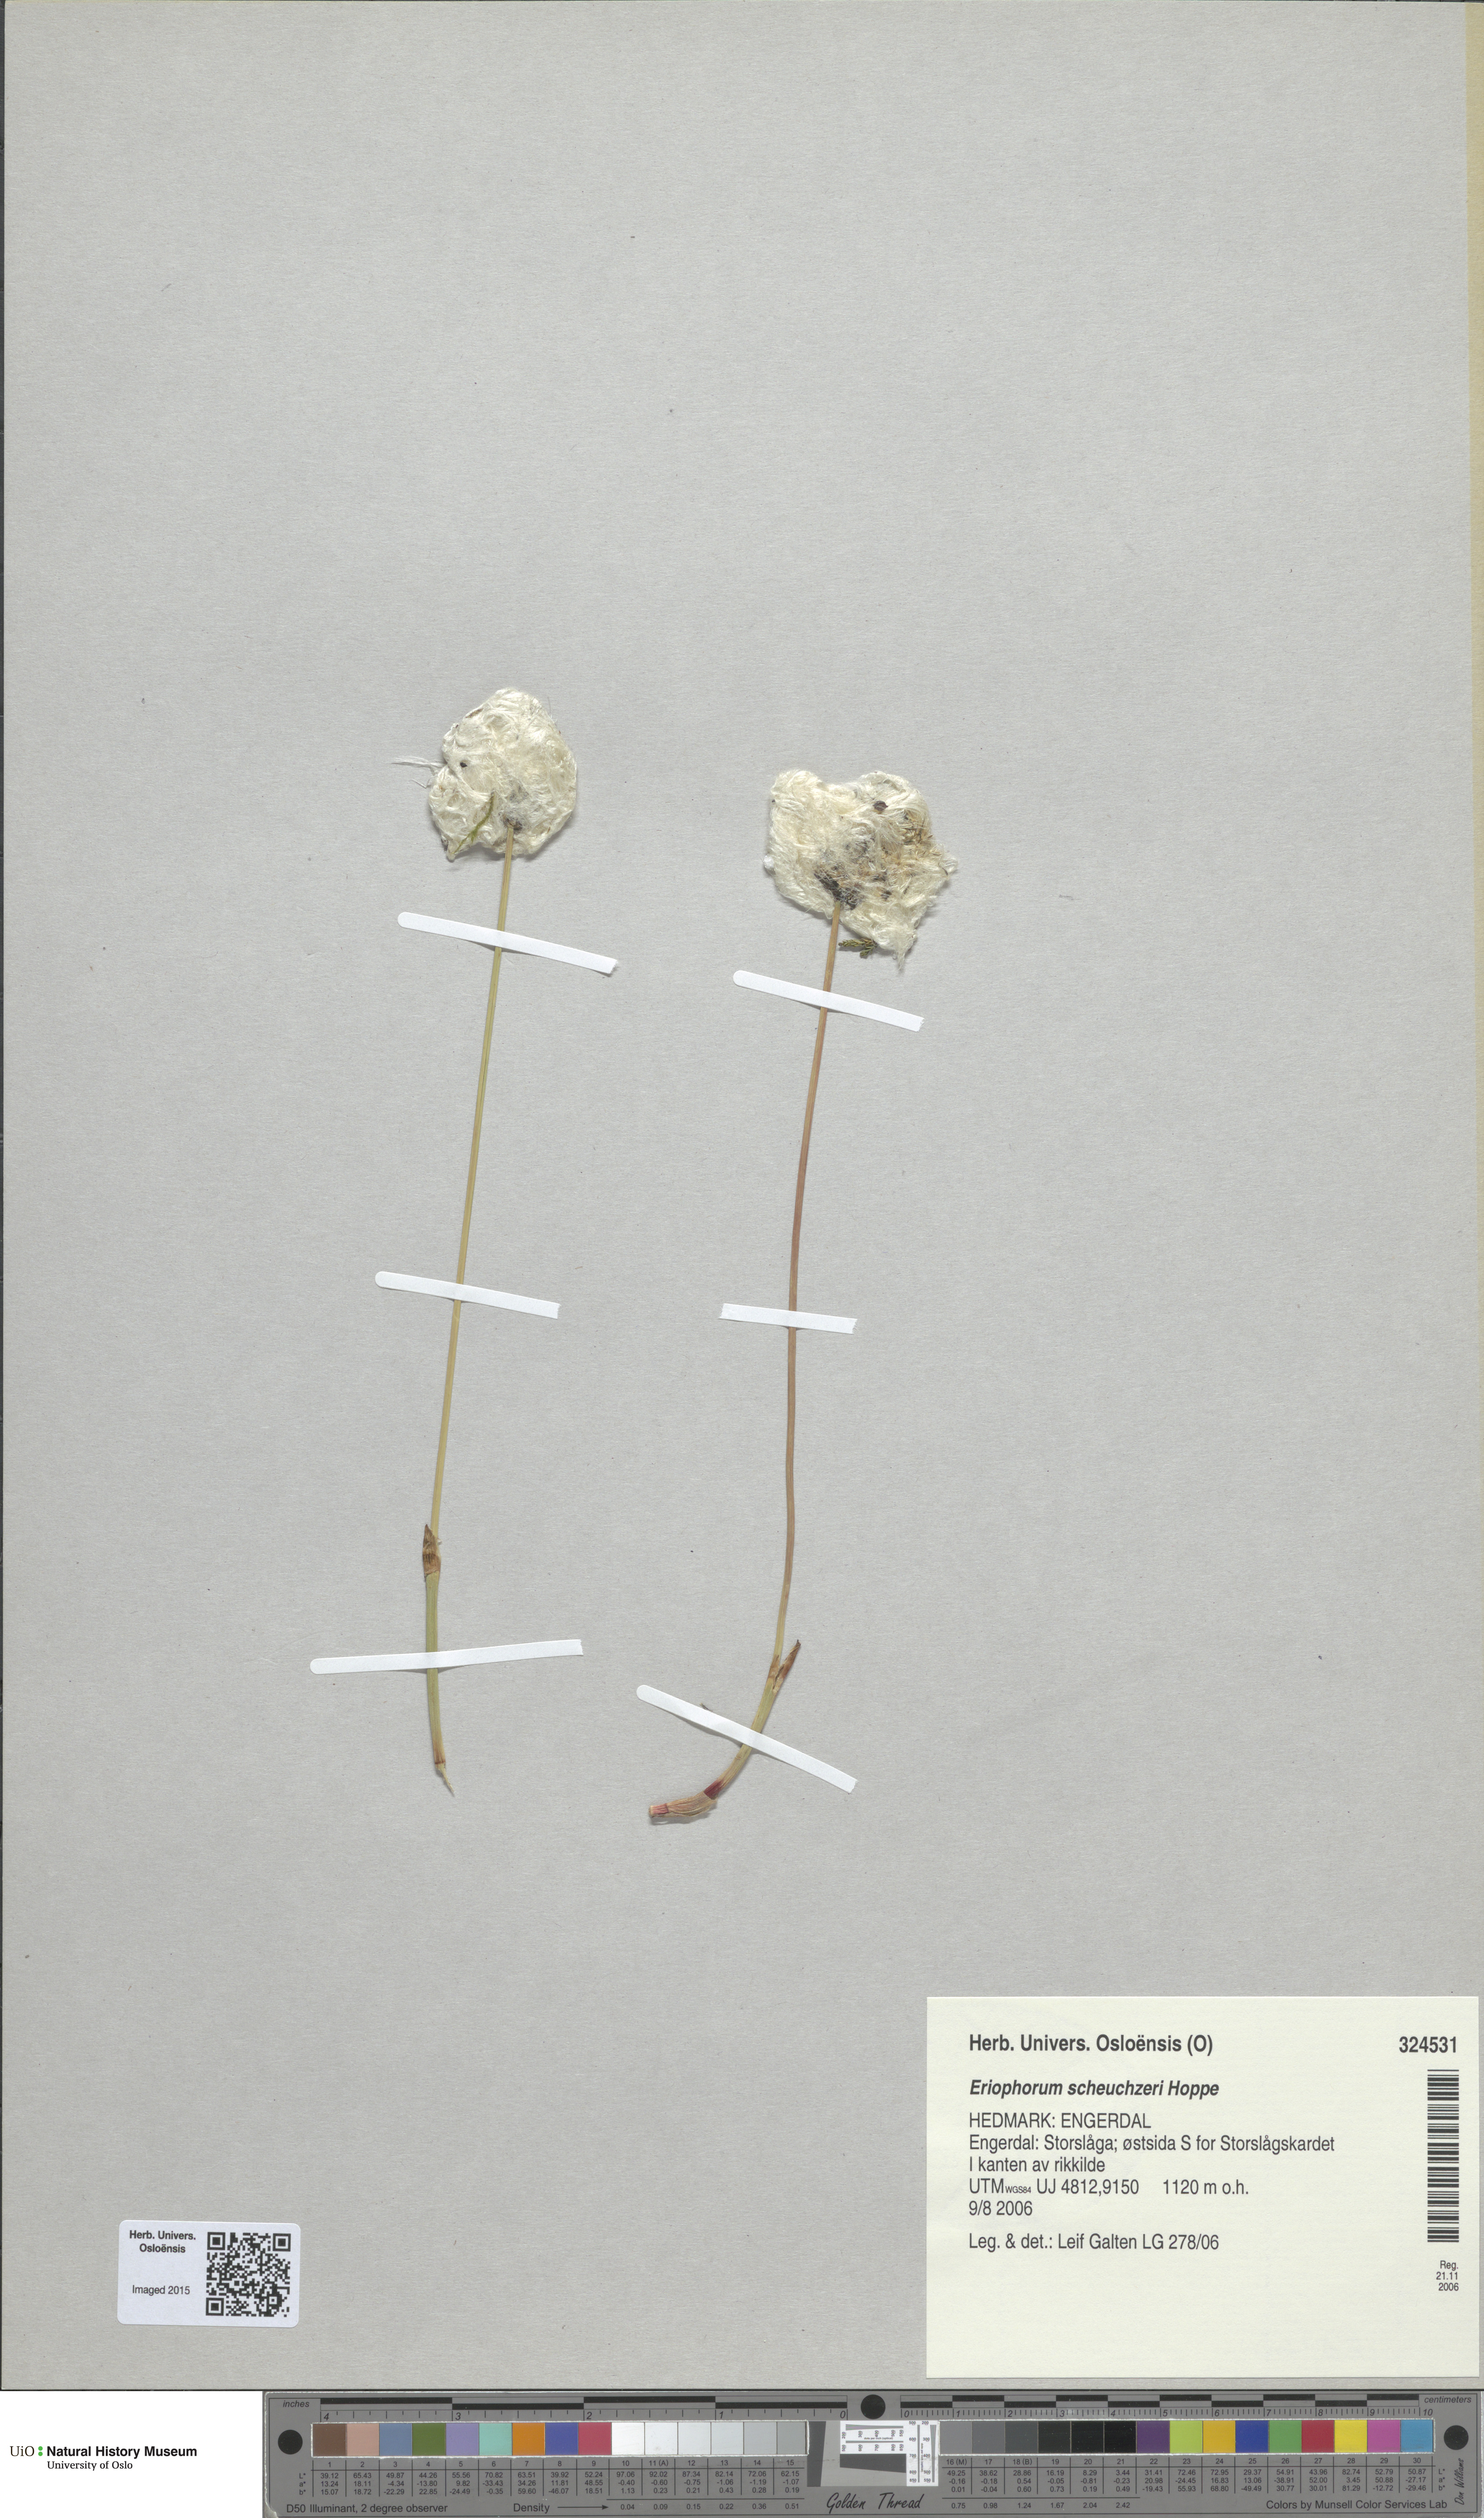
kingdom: Plantae
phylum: Tracheophyta
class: Liliopsida
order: Poales
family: Cyperaceae
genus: Eriophorum
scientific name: Eriophorum scheuchzeri
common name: Scheuchzer's cottongrass
